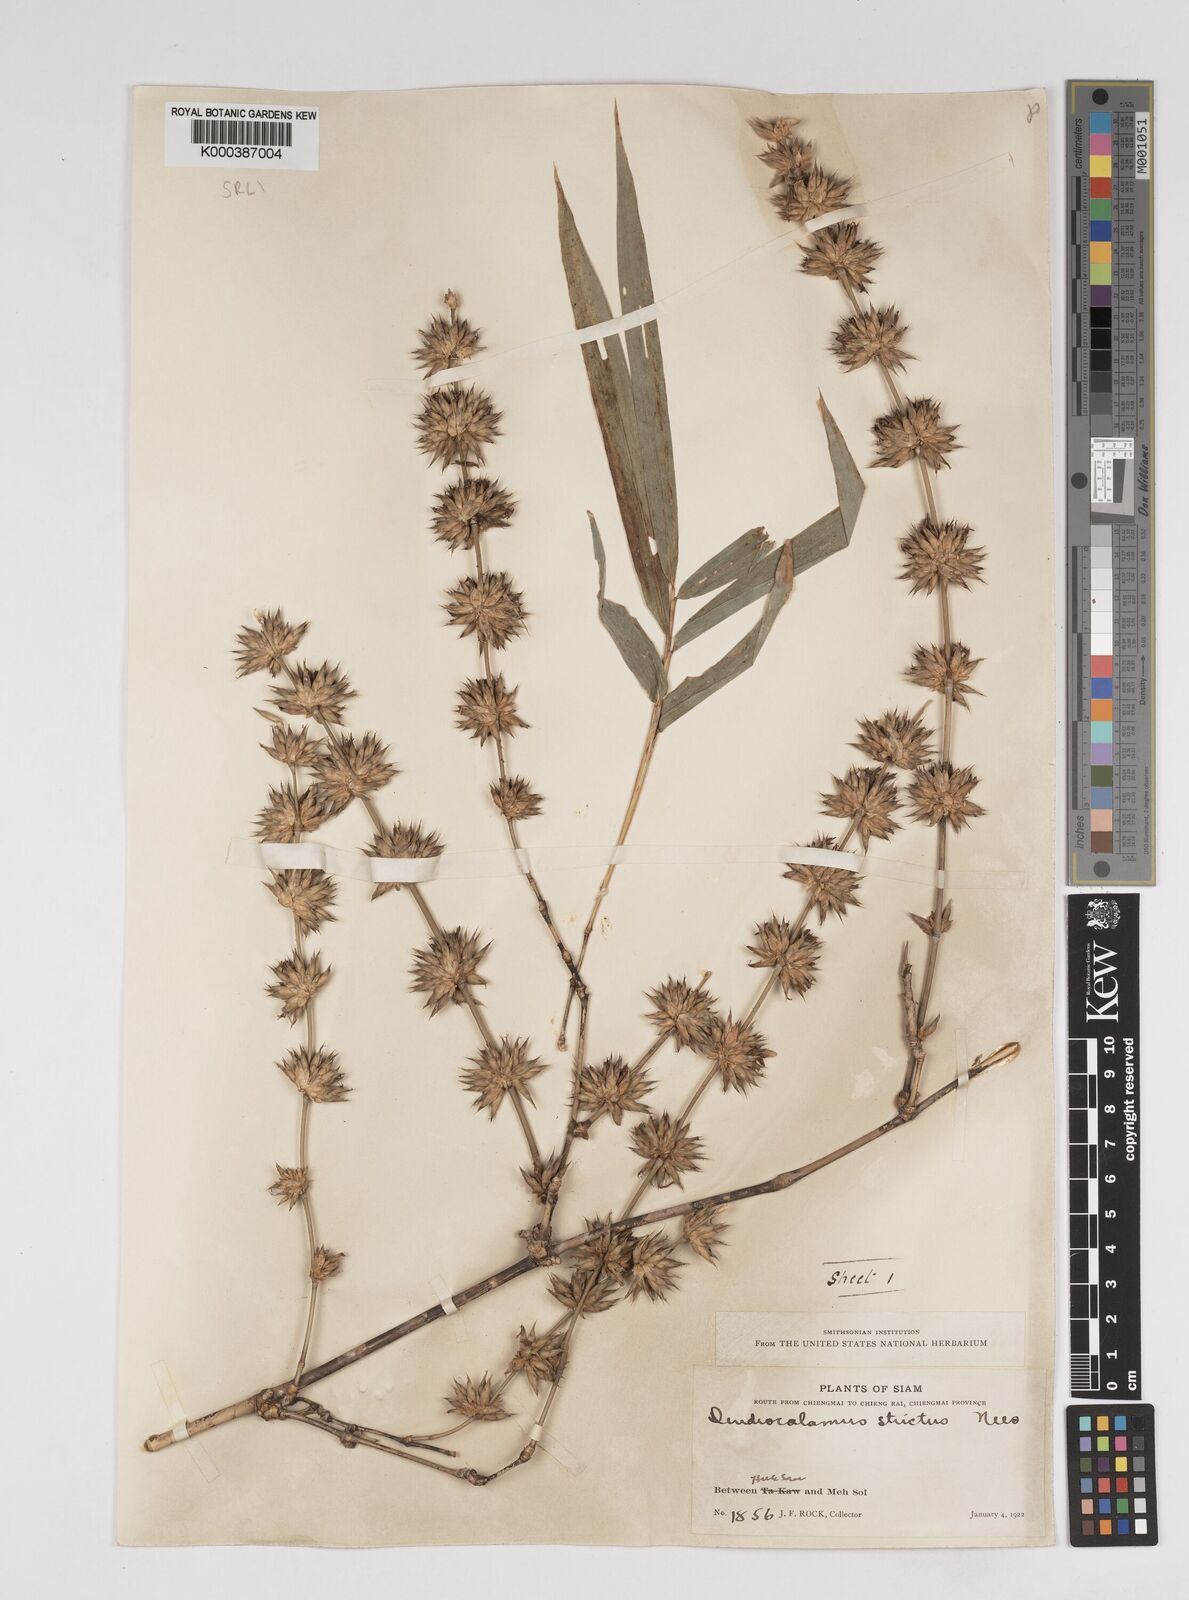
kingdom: Plantae
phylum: Tracheophyta
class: Liliopsida
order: Poales
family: Poaceae
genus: Dendrocalamus
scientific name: Dendrocalamus membranaceus
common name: White bamboo
